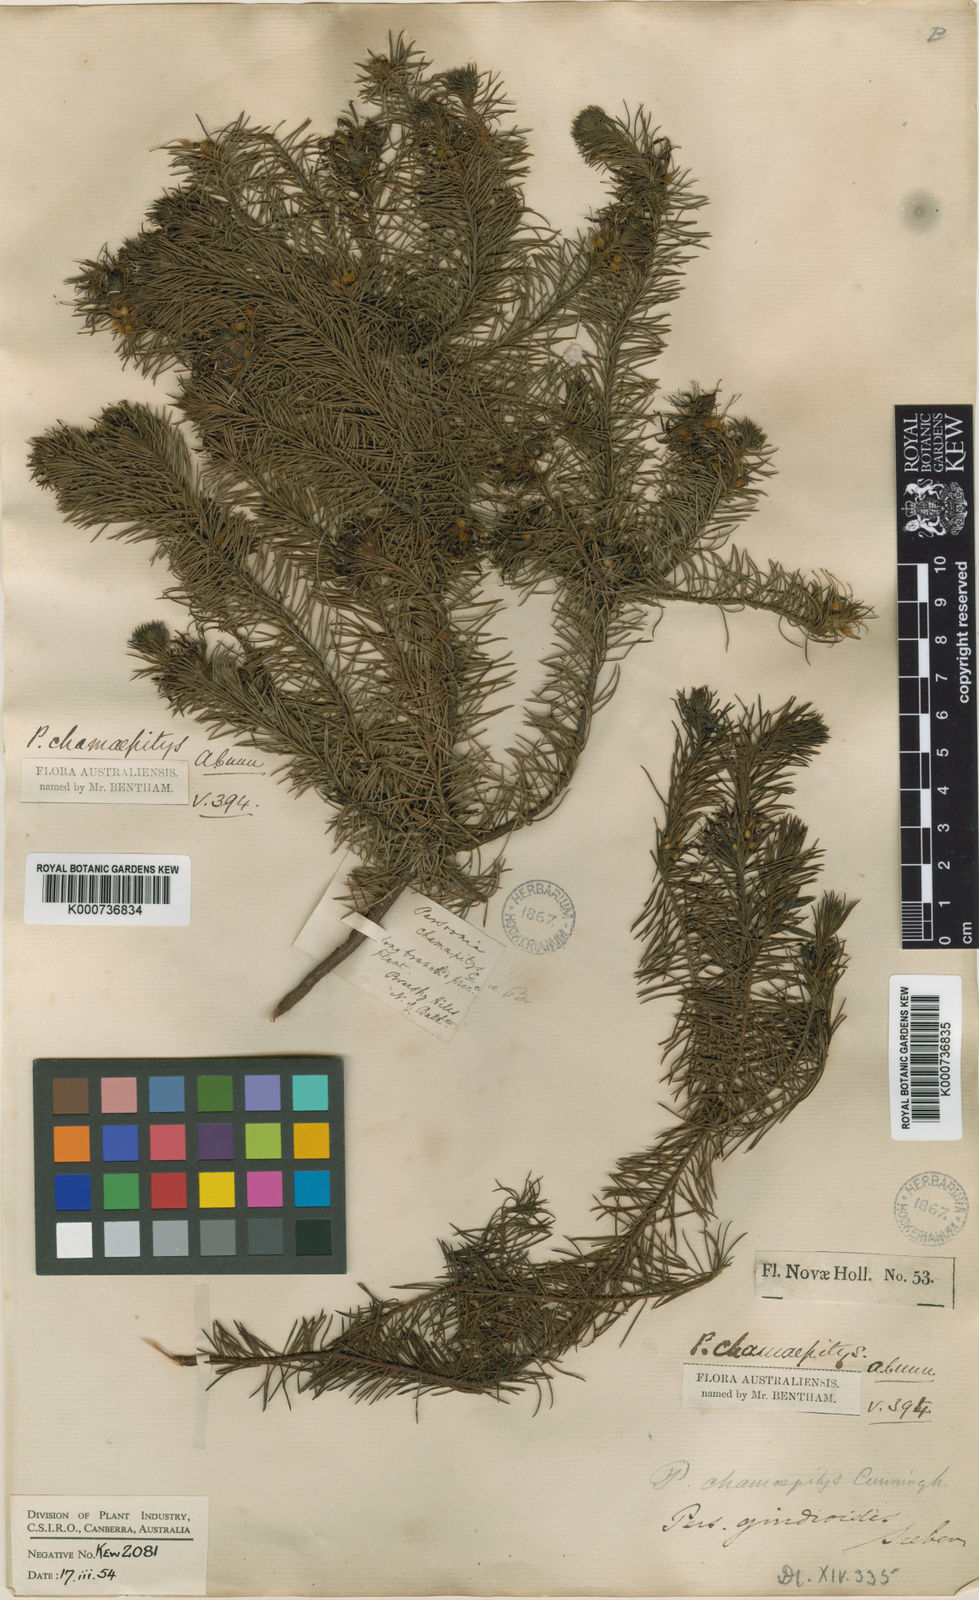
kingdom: Plantae
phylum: Tracheophyta
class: Magnoliopsida
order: Proteales
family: Proteaceae
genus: Persoonia
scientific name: Persoonia chamaepitys
